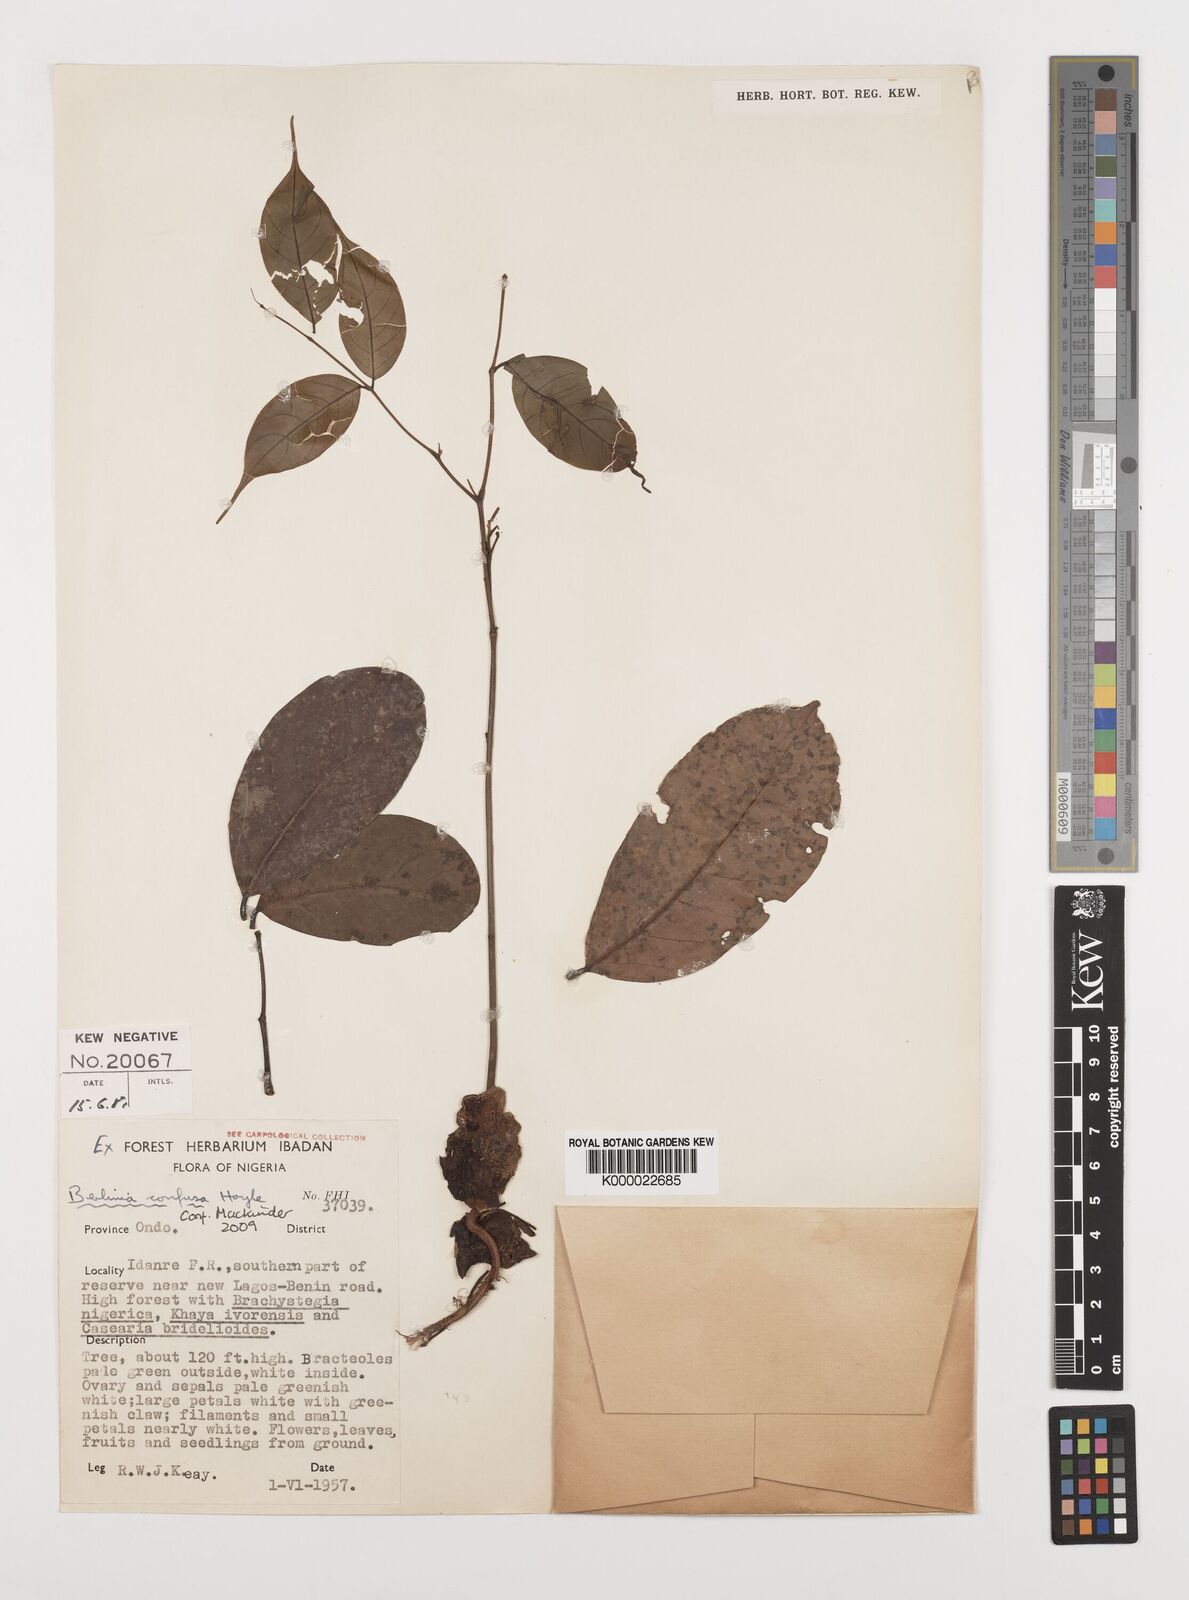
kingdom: Plantae
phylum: Tracheophyta
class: Magnoliopsida
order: Fabales
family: Fabaceae
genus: Berlinia
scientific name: Berlinia confusa
